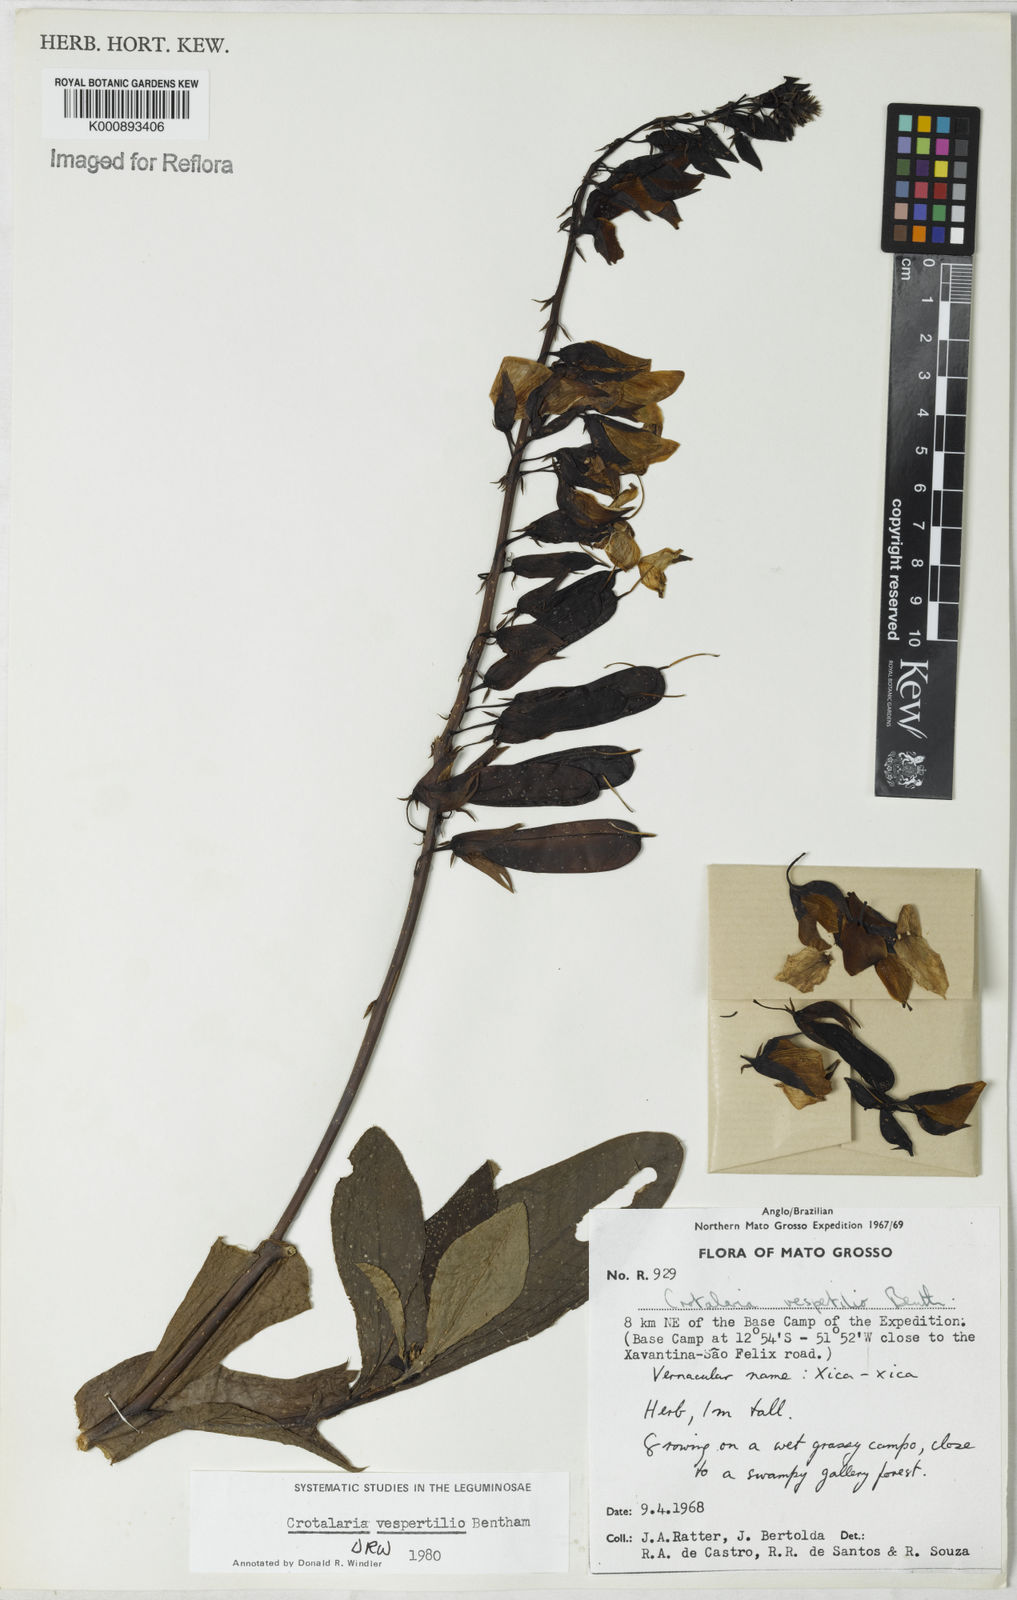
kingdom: Plantae
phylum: Tracheophyta
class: Magnoliopsida
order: Fabales
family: Fabaceae
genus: Crotalaria
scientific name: Crotalaria vespertilio
